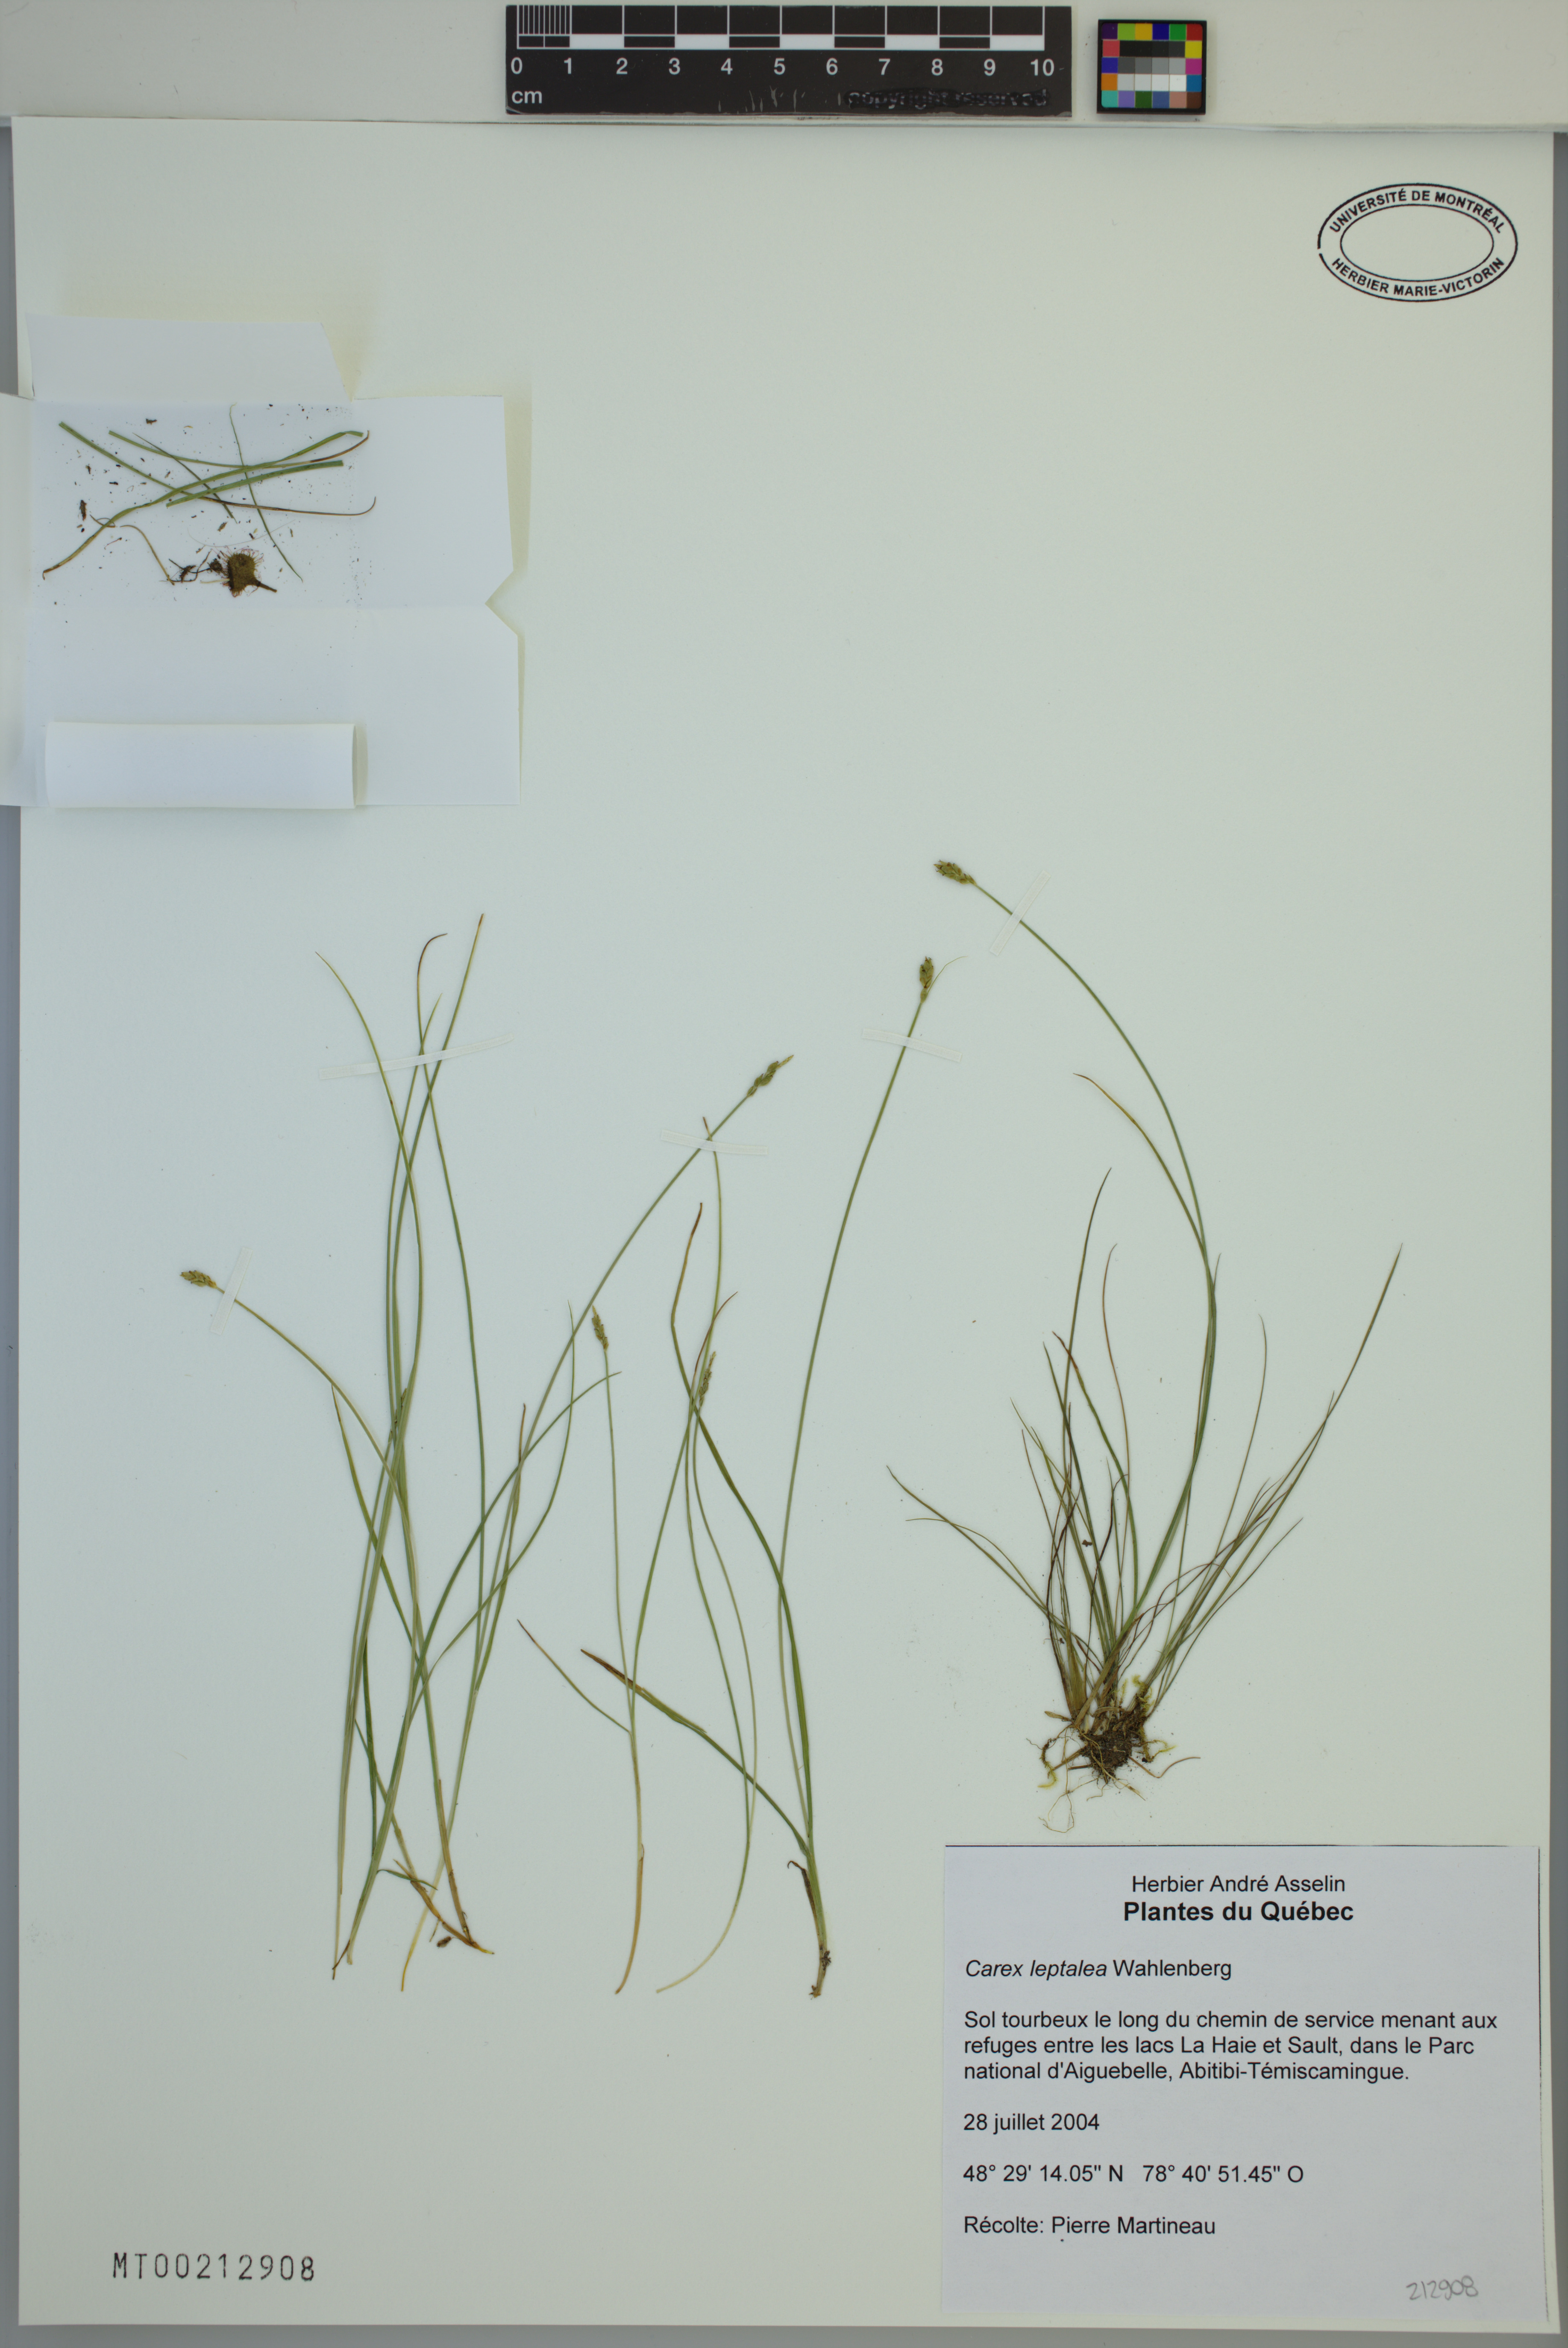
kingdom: Plantae
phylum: Tracheophyta
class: Liliopsida
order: Poales
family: Cyperaceae
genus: Carex
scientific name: Carex leptalea
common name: Bristly-stalked sedge
